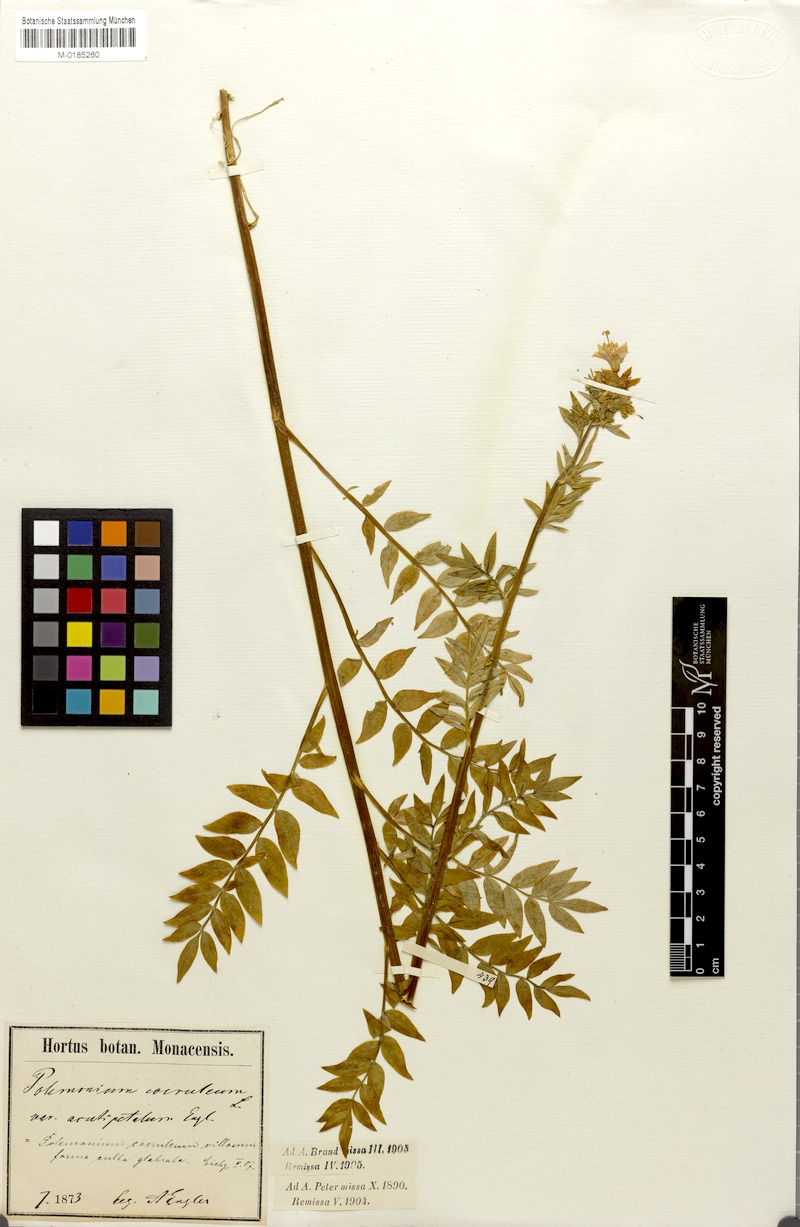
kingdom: Plantae
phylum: Tracheophyta
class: Magnoliopsida
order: Ericales
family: Polemoniaceae
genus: Polemonium
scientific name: Polemonium villosum
